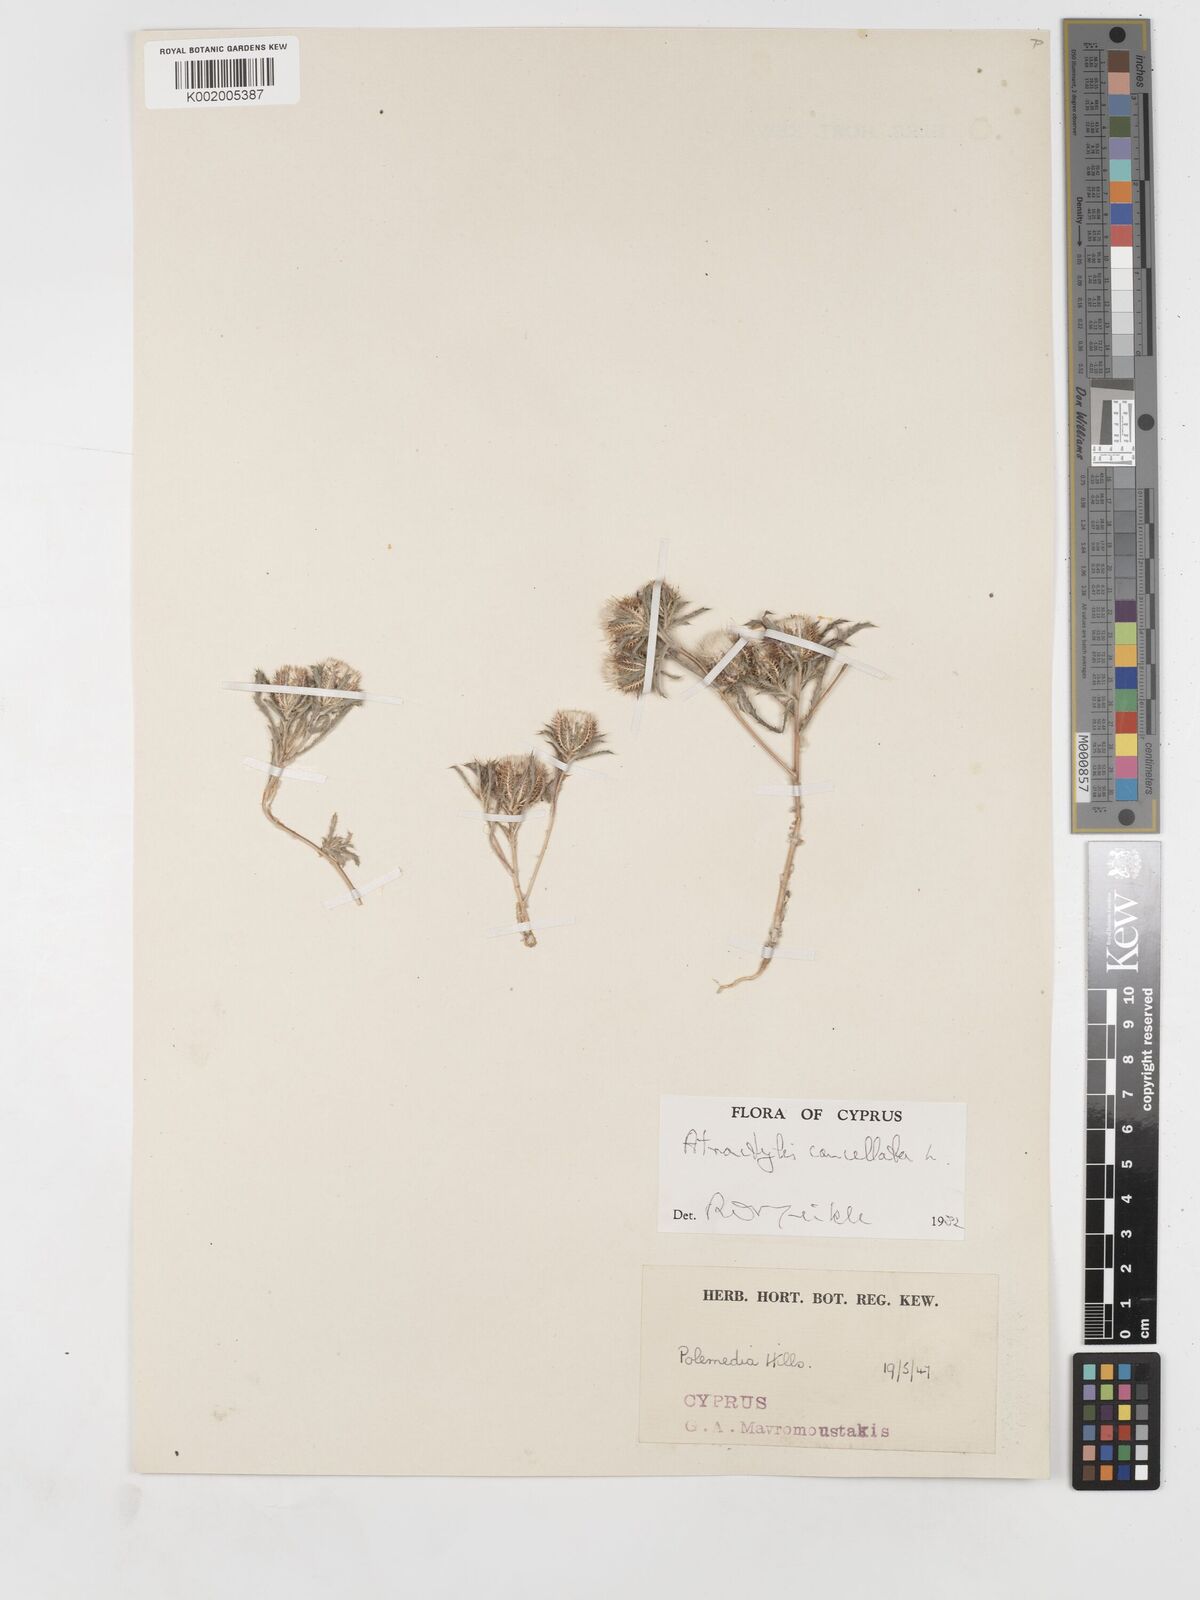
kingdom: Plantae
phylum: Tracheophyta
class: Magnoliopsida
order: Asterales
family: Asteraceae
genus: Atractylis
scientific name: Atractylis cancellata
